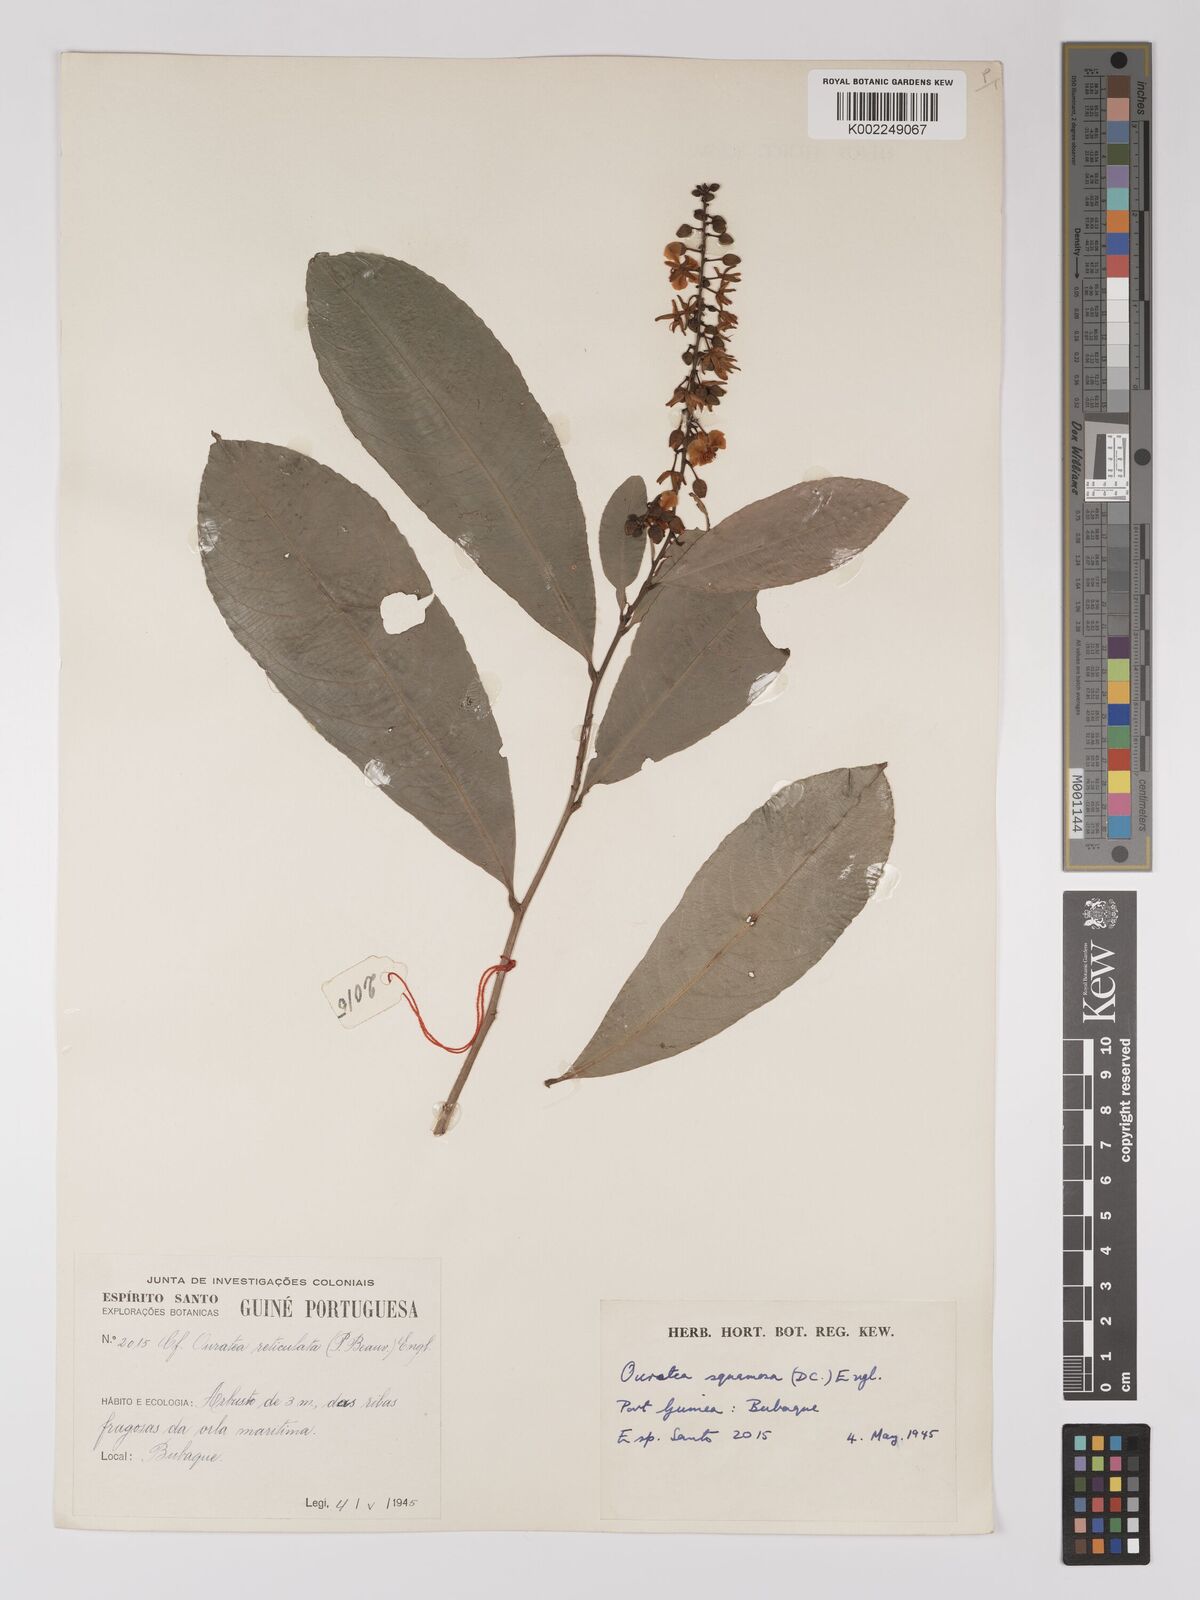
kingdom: Plantae
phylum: Tracheophyta
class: Magnoliopsida
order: Malpighiales
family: Ochnaceae
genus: Campylospermum
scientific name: Campylospermum squamosum
